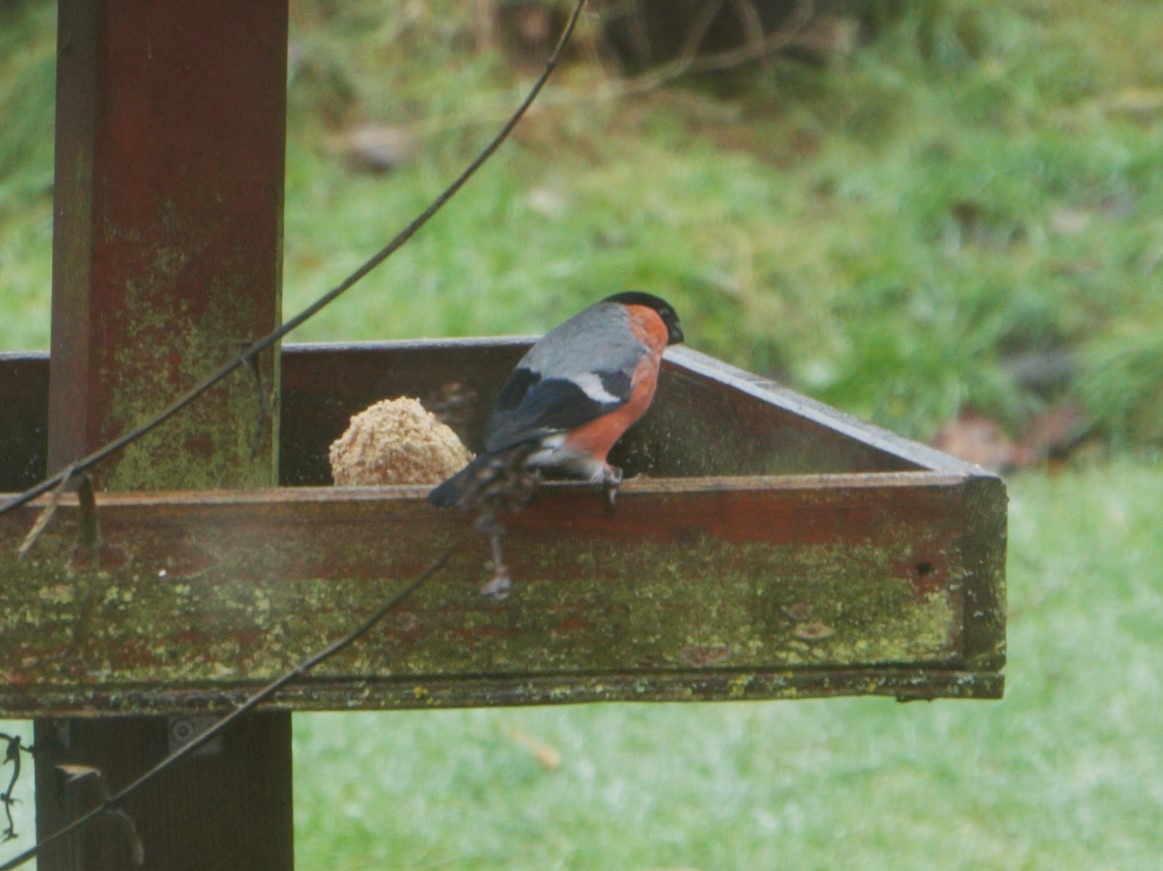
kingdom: Animalia
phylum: Chordata
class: Aves
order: Passeriformes
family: Fringillidae
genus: Pyrrhula
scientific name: Pyrrhula pyrrhula
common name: Dompap
